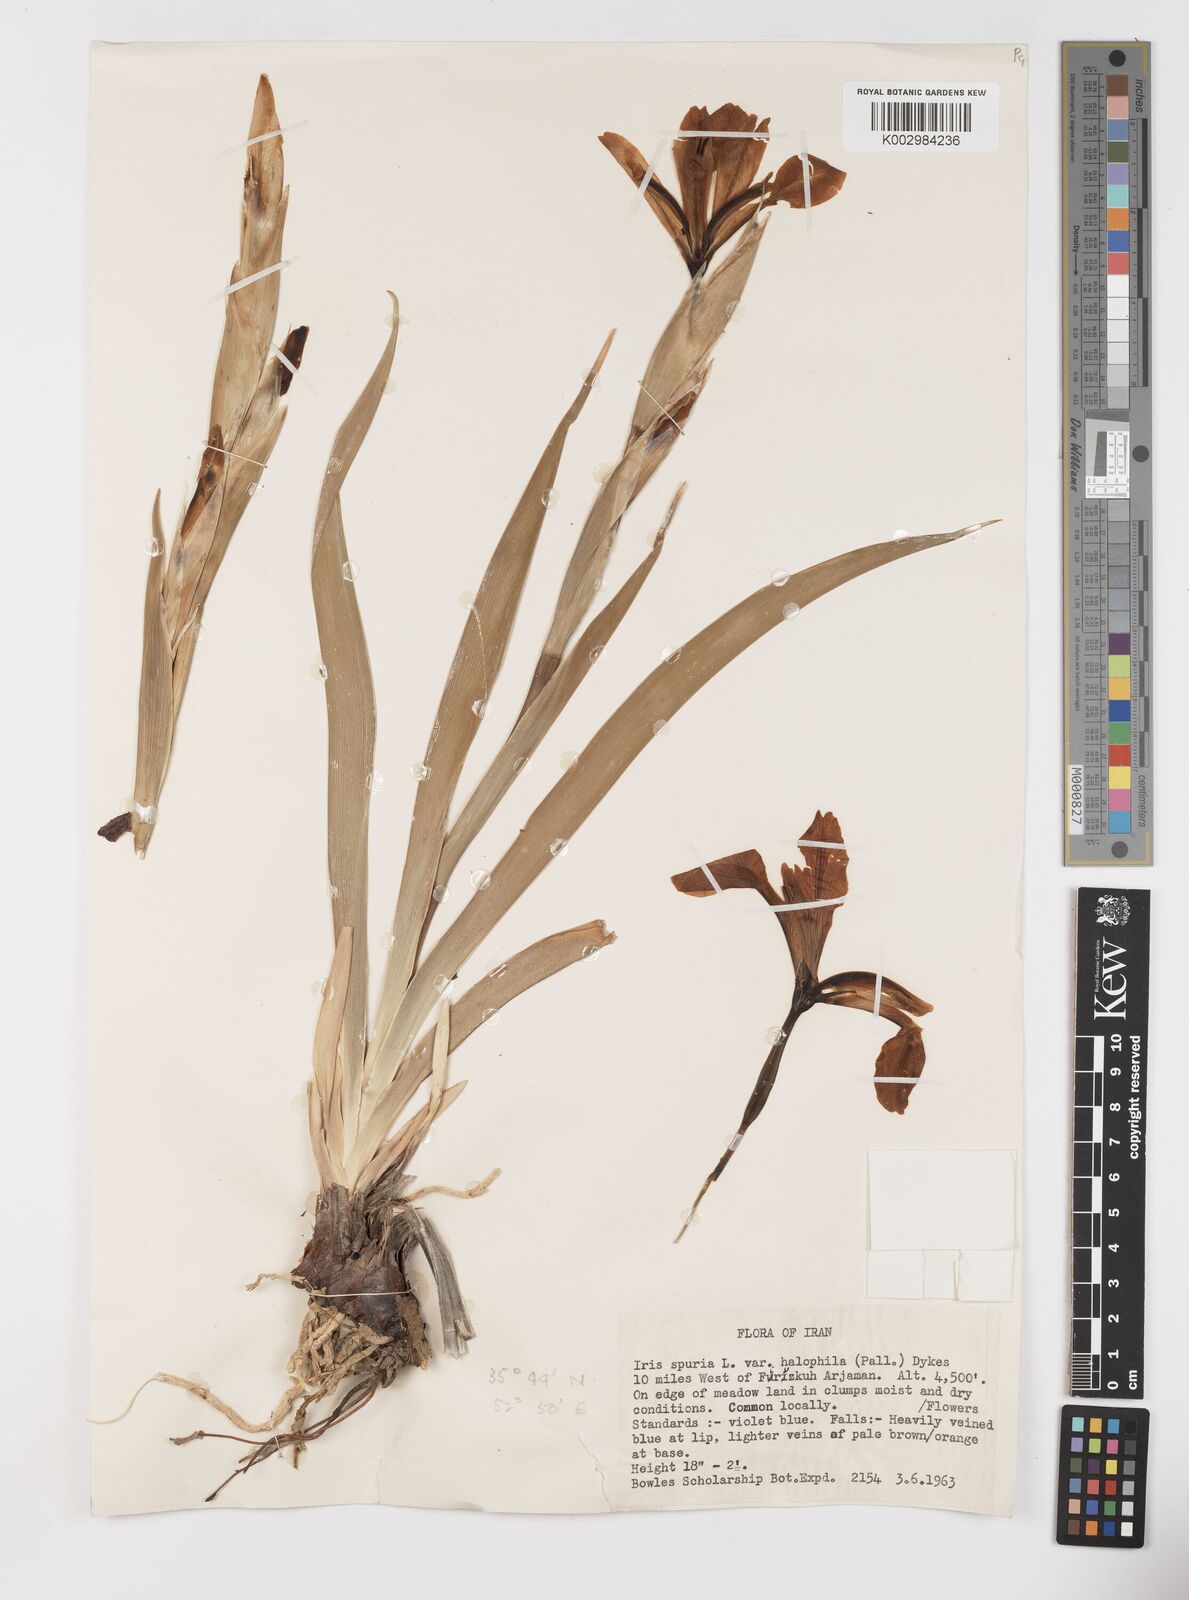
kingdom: Plantae
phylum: Tracheophyta
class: Liliopsida
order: Asparagales
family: Iridaceae
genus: Iris
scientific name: Iris spuria
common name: Blue iris
